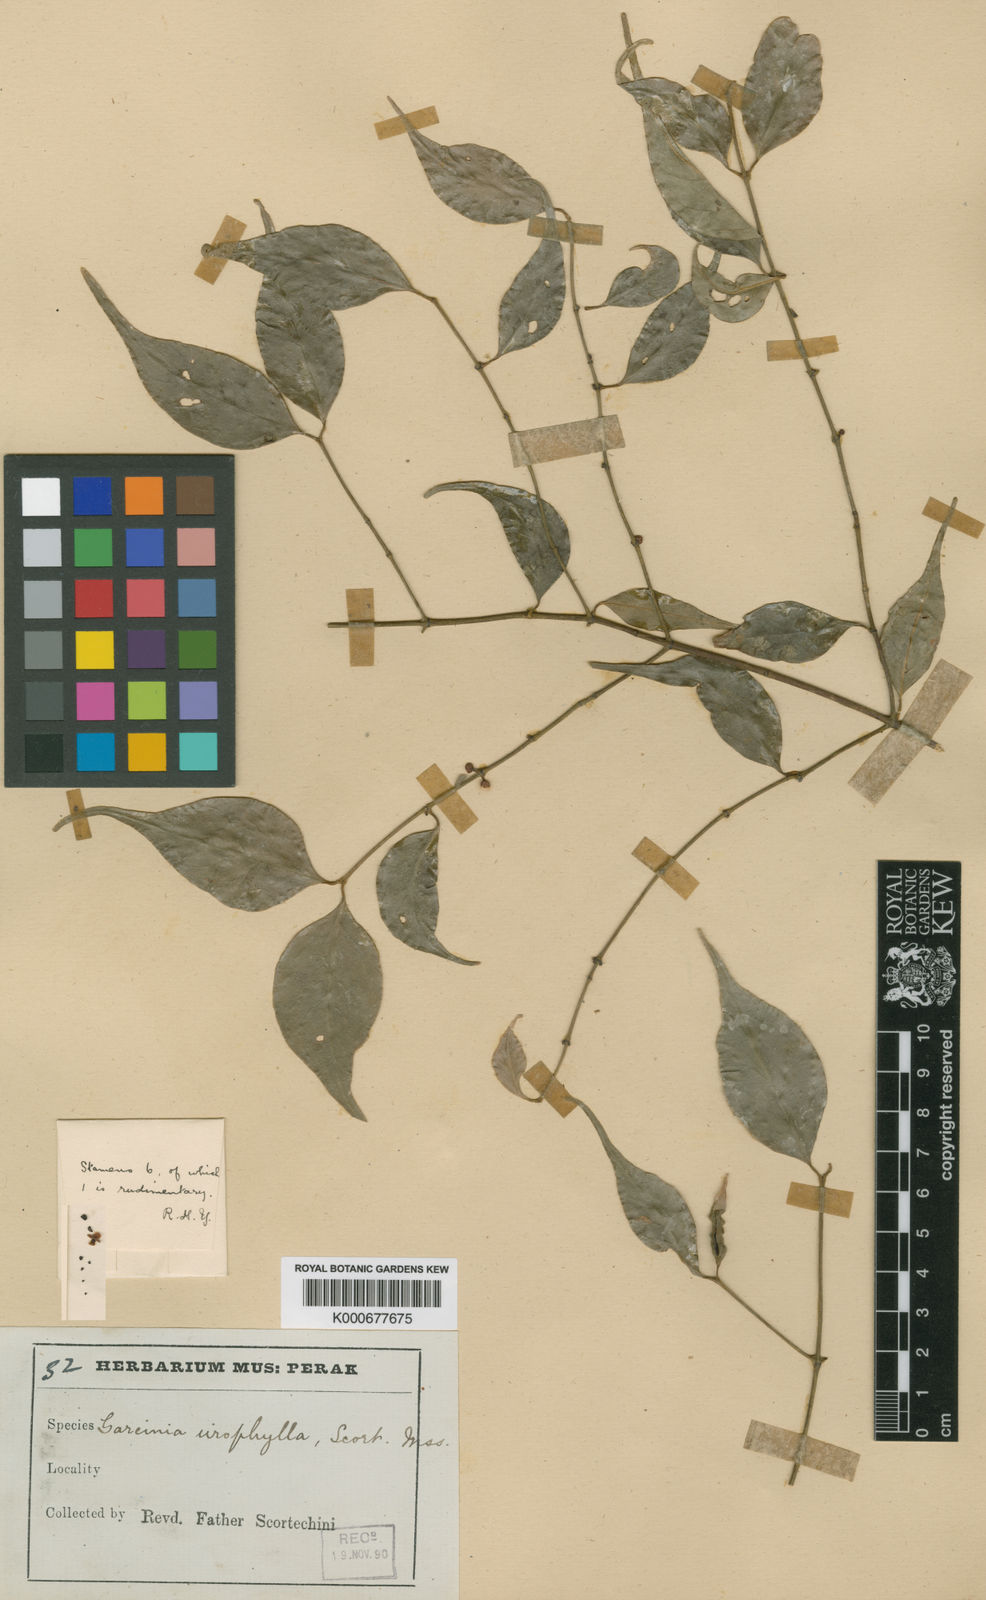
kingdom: Plantae
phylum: Tracheophyta
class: Magnoliopsida
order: Malpighiales
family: Clusiaceae
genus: Garcinia
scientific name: Garcinia urophylla
